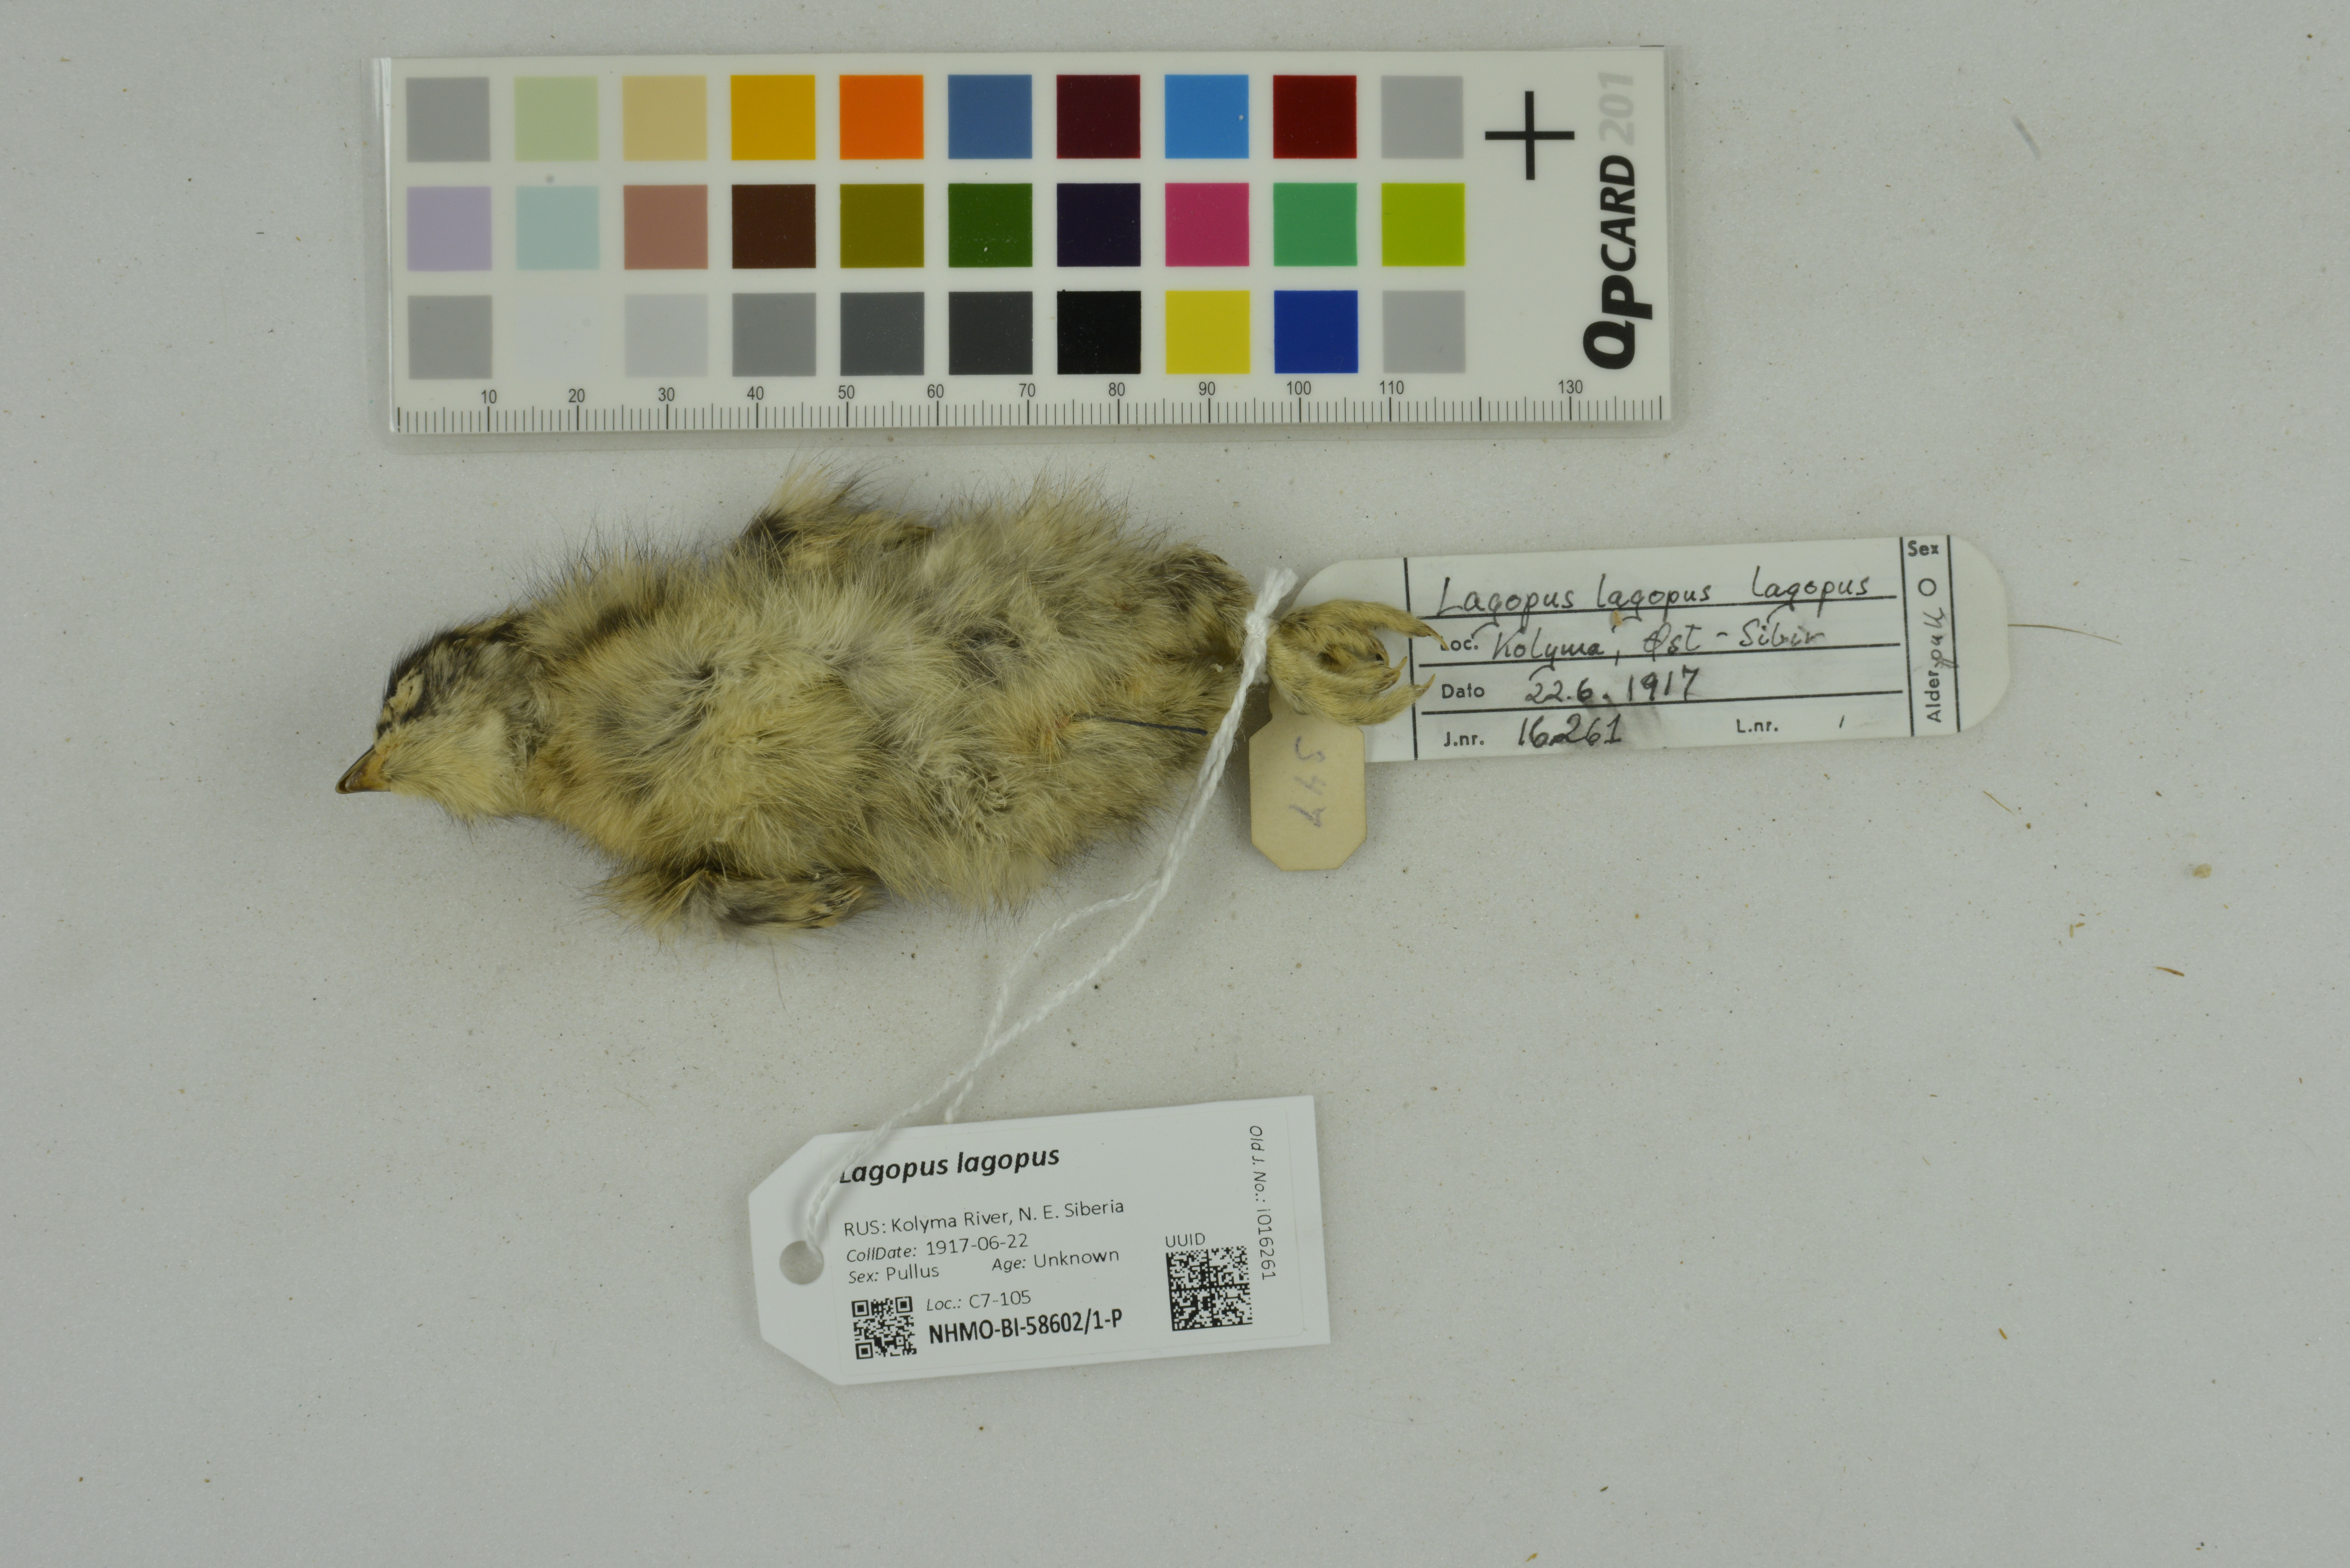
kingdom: Animalia
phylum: Chordata
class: Aves
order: Galliformes
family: Phasianidae
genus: Lagopus
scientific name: Lagopus lagopus
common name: Willow ptarmigan
